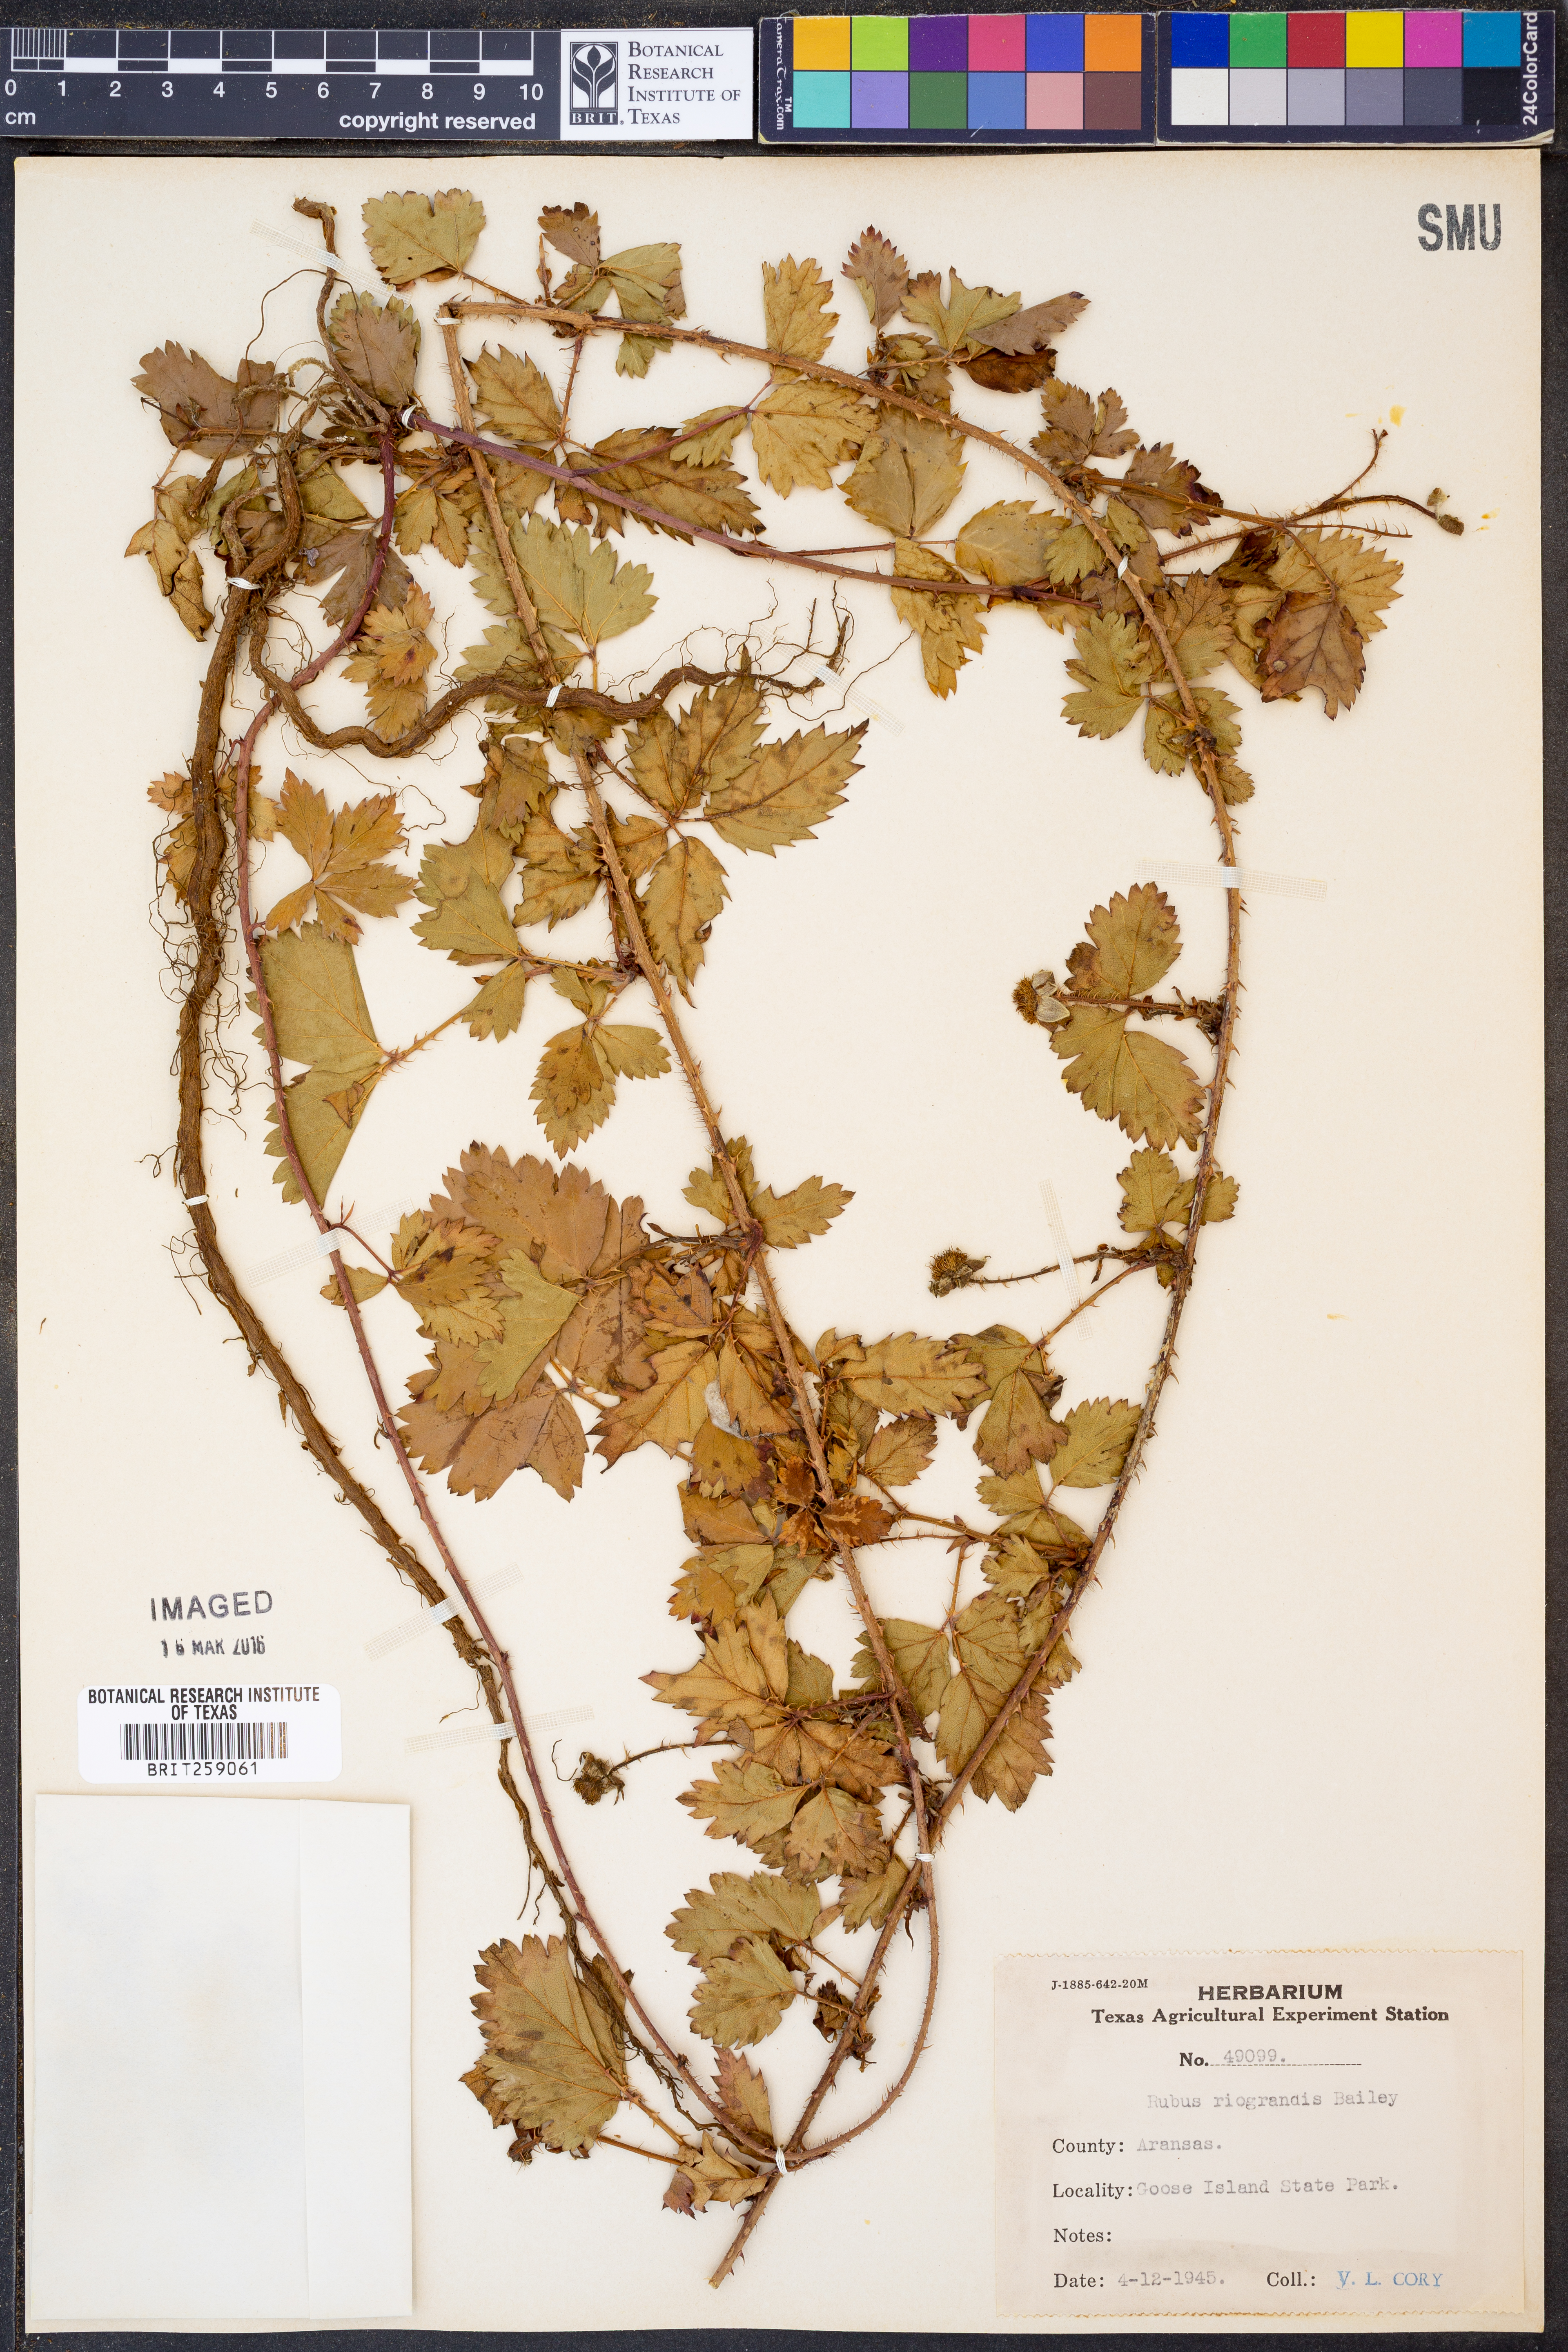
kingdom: Plantae
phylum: Tracheophyta
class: Magnoliopsida
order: Rosales
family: Rosaceae
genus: Rubus
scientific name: Rubus riograndis
